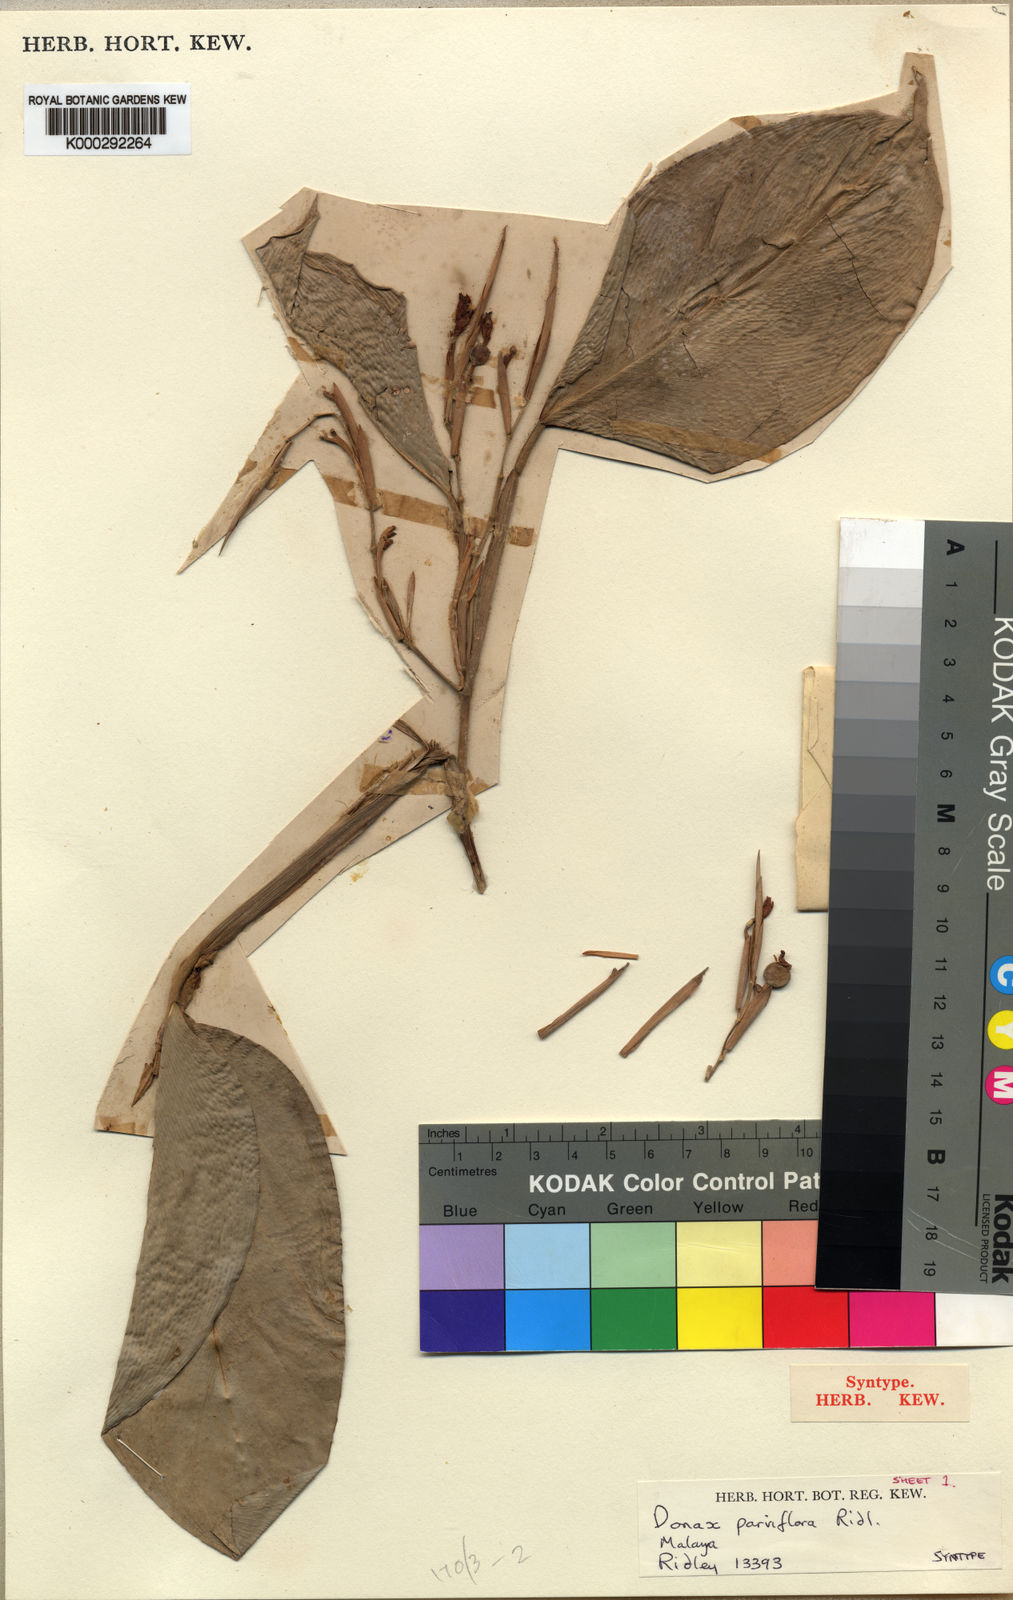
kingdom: Plantae
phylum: Tracheophyta
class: Liliopsida
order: Zingiberales
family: Marantaceae
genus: Donax
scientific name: Donax canniformis
